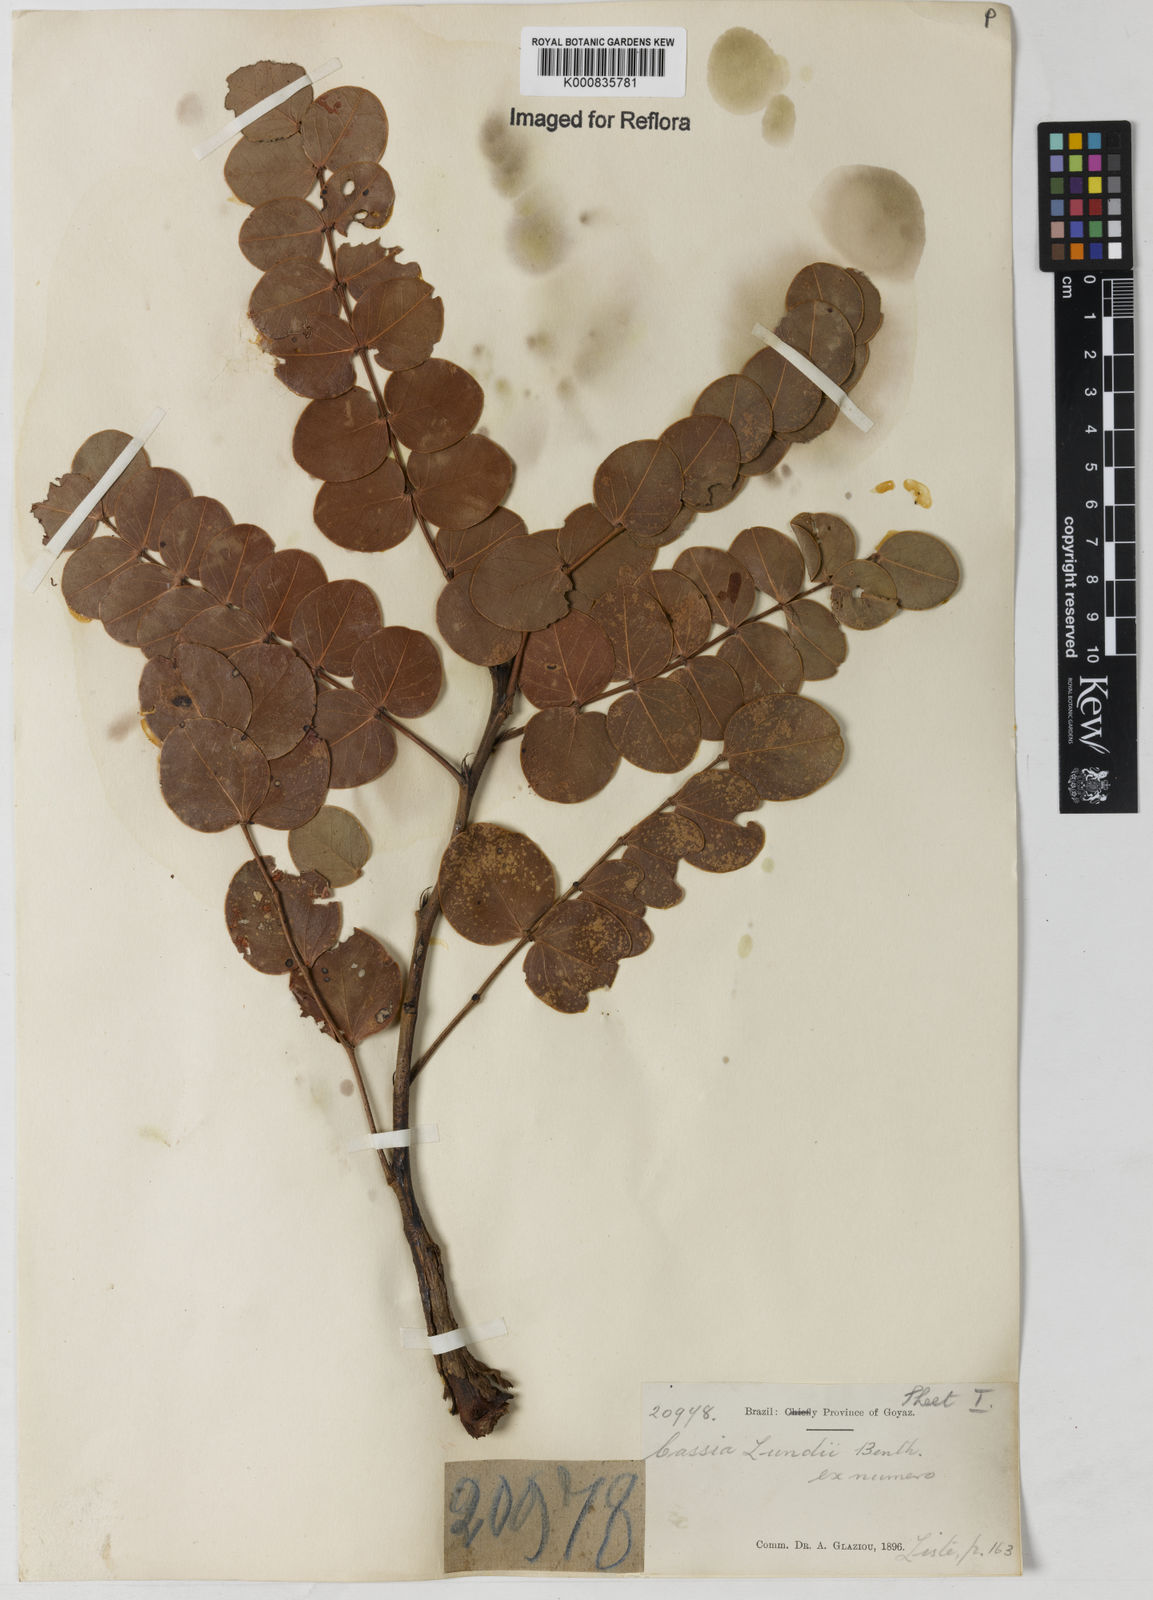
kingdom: Plantae
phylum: Tracheophyta
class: Magnoliopsida
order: Fabales
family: Fabaceae
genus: Chamaecrista
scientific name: Chamaecrista lundii
